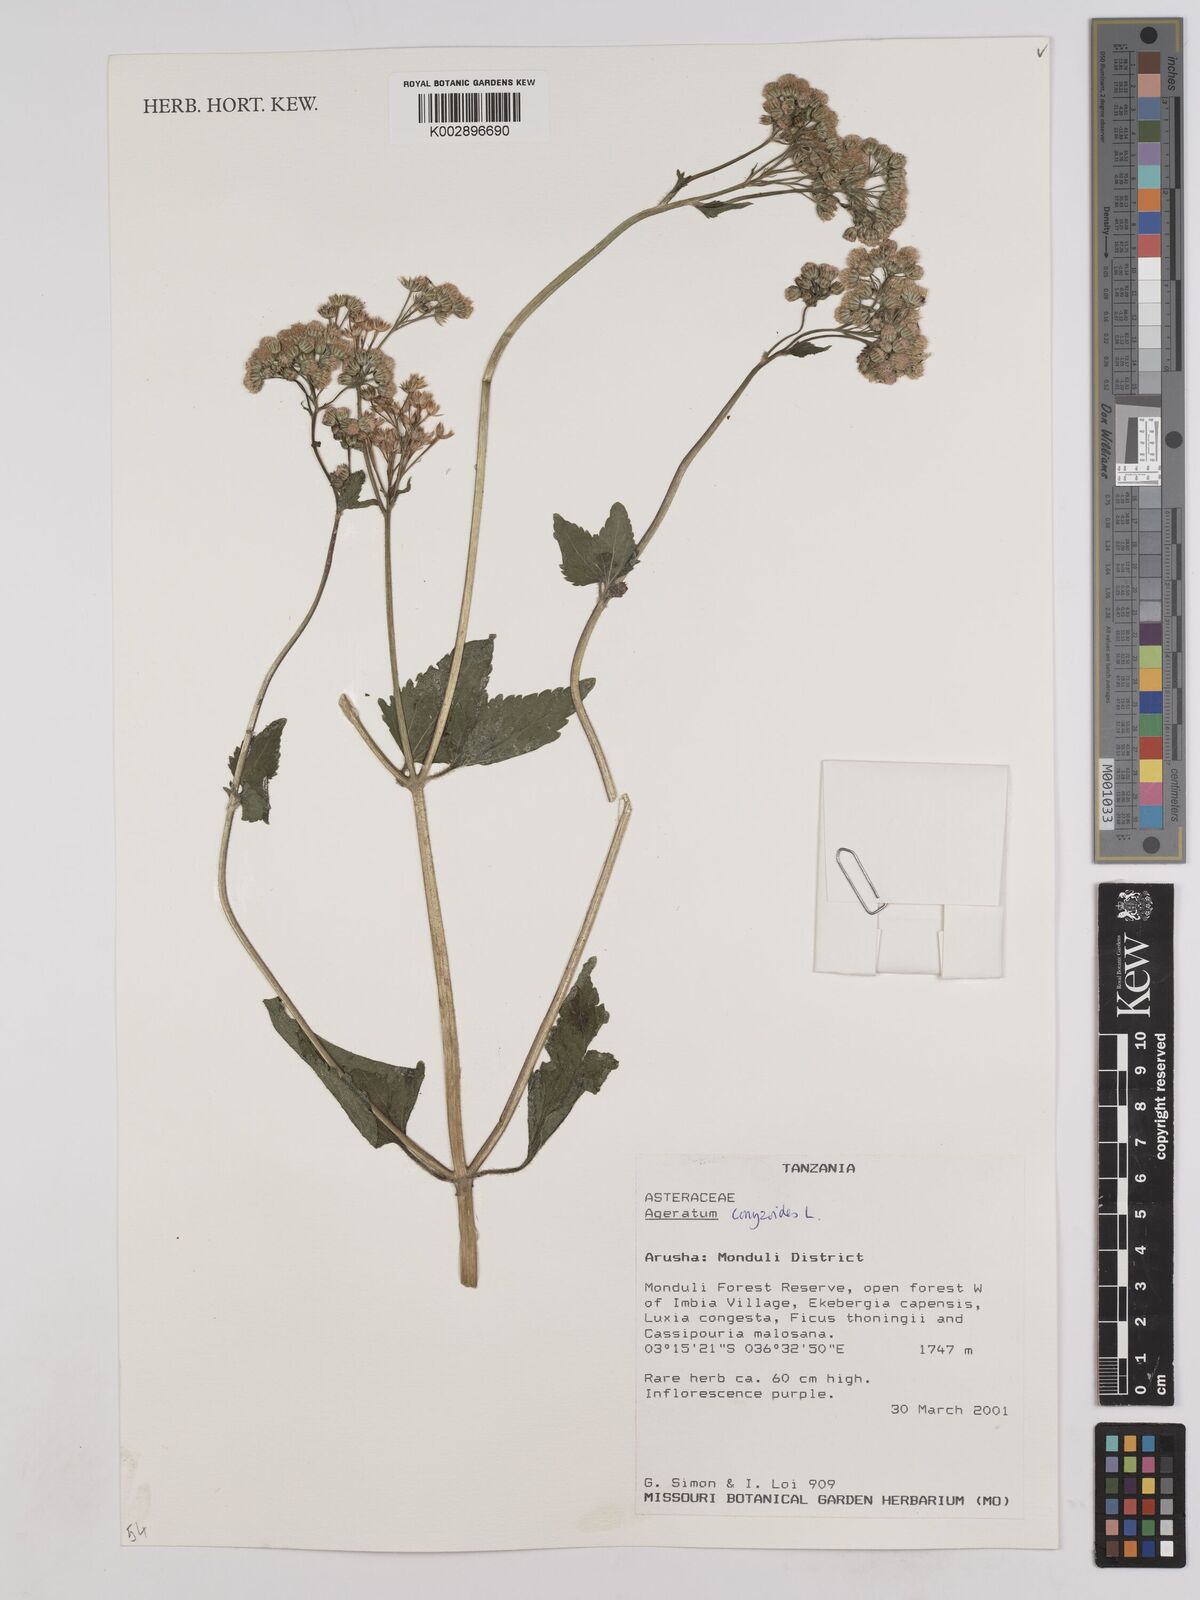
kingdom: Plantae
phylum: Tracheophyta
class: Magnoliopsida
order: Asterales
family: Asteraceae
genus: Ageratum
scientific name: Ageratum conyzoides
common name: Tropical whiteweed
